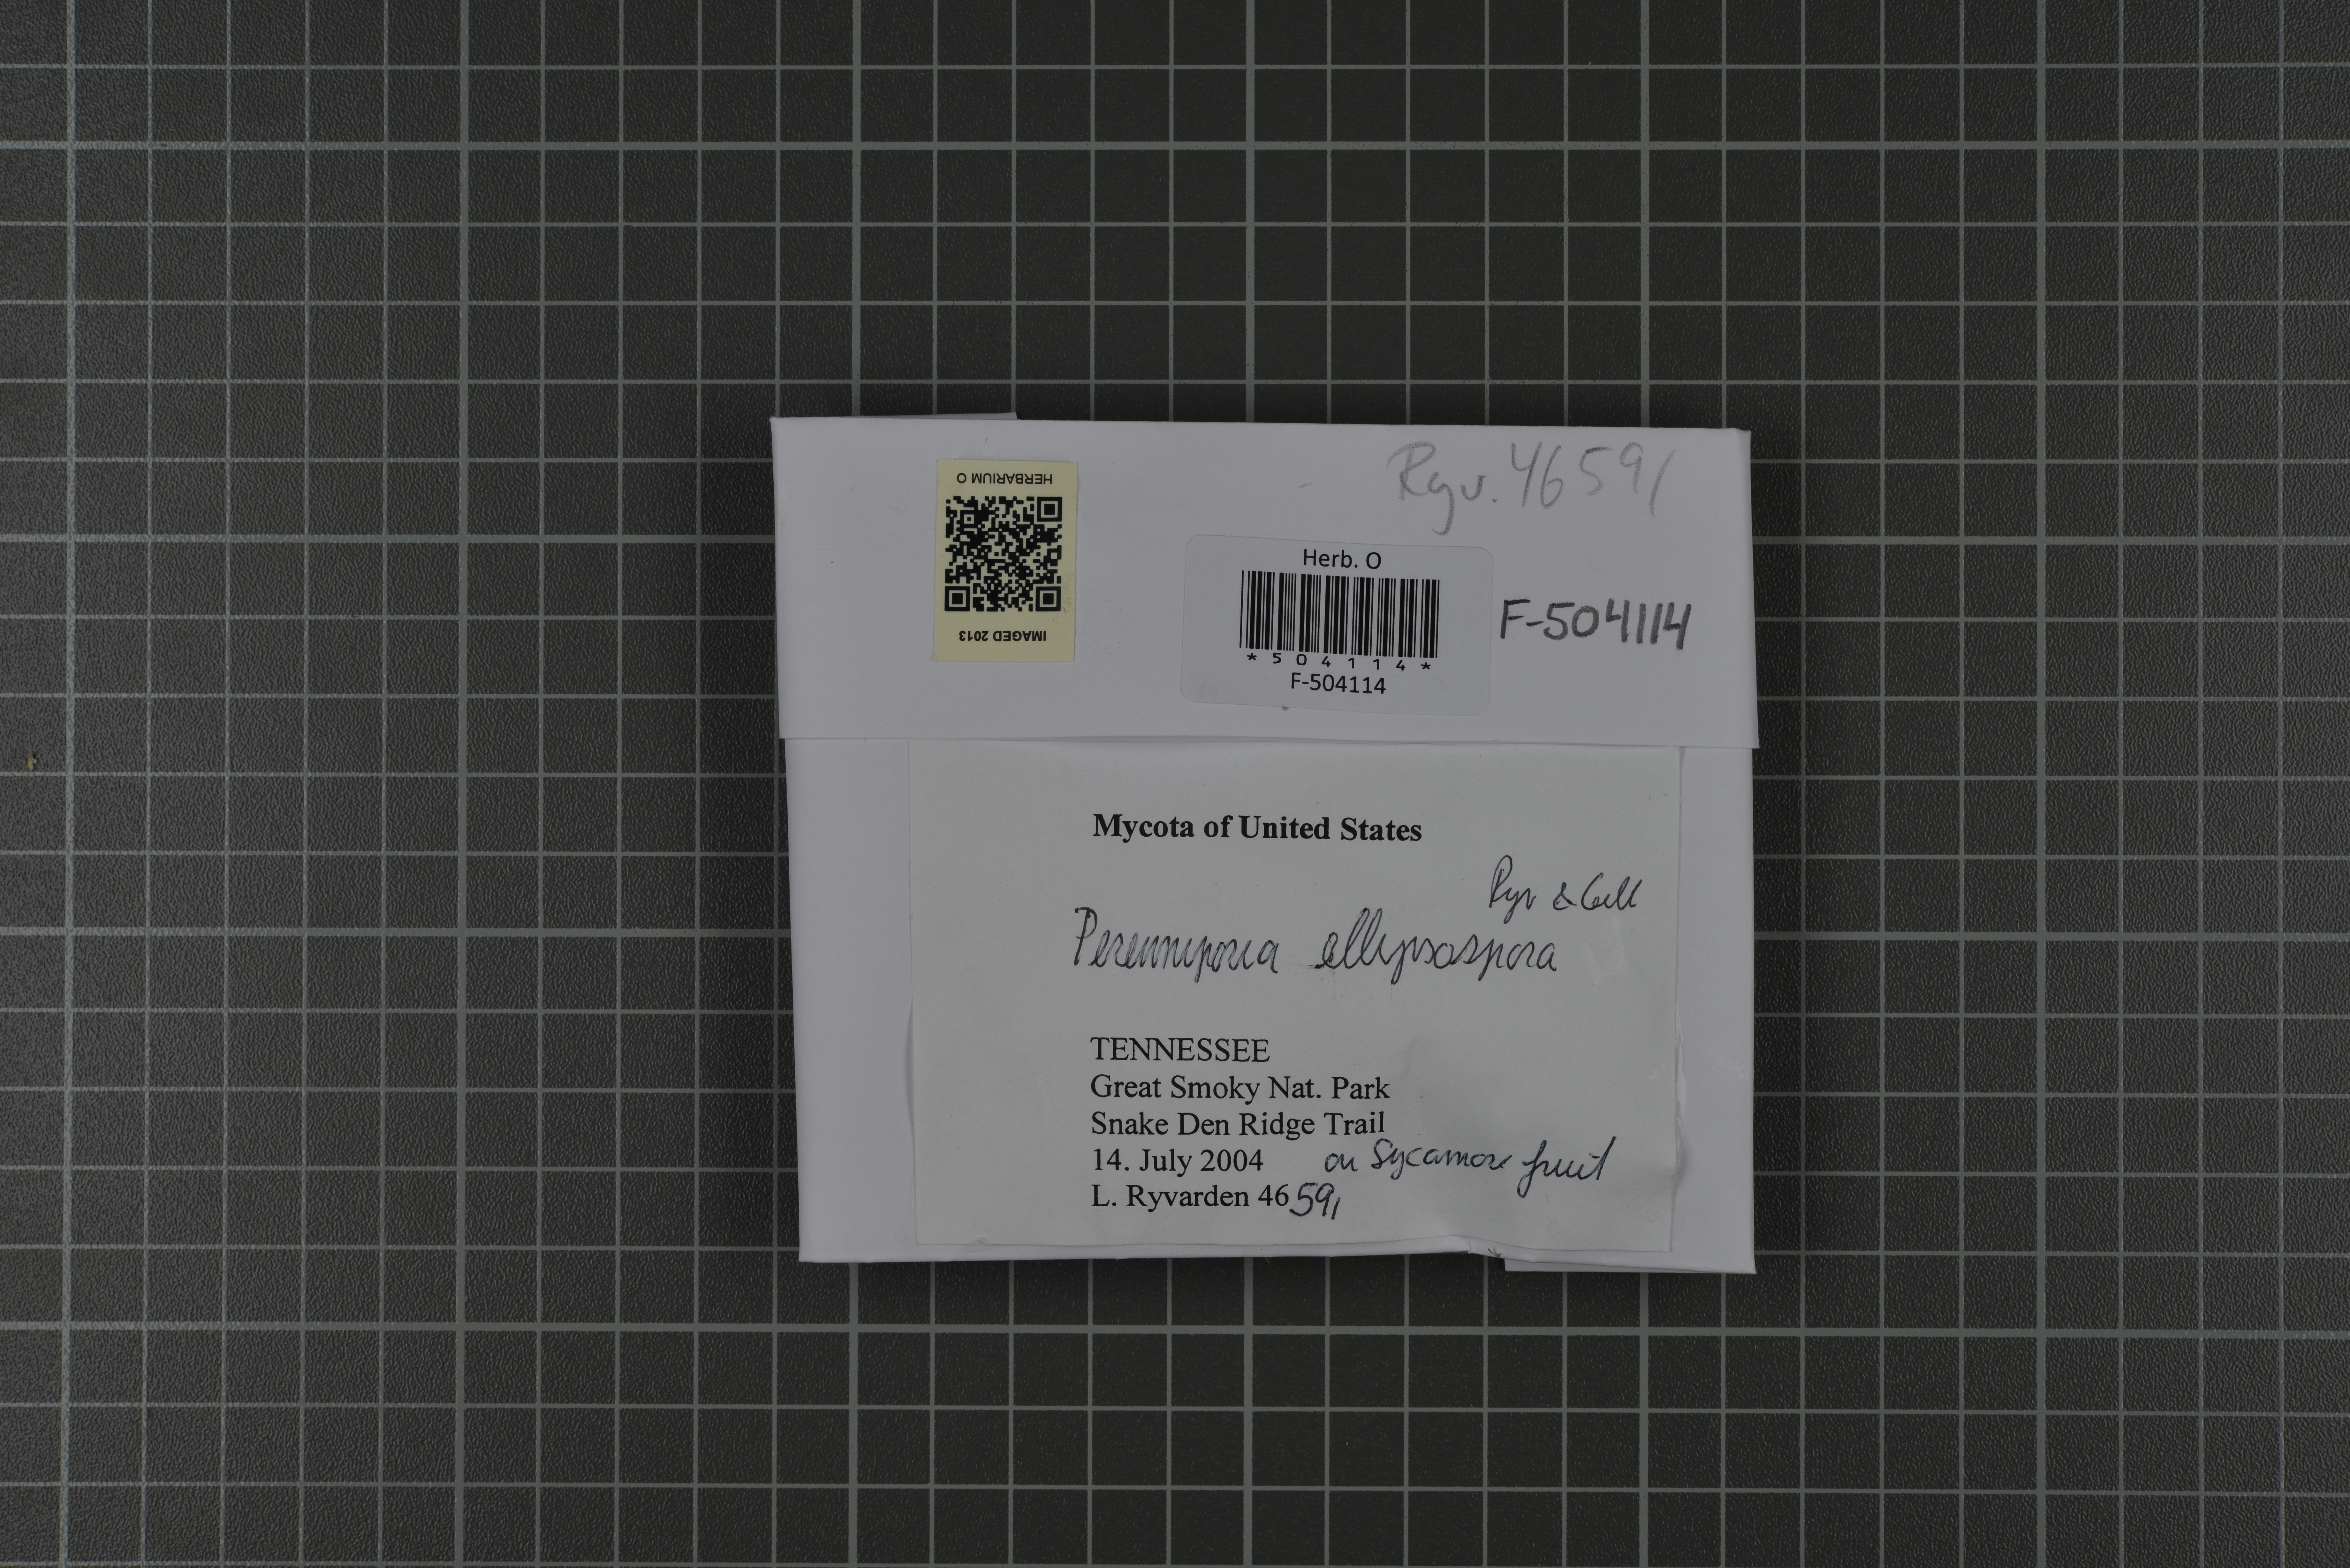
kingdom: Fungi
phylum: Basidiomycota
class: Agaricomycetes
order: Polyporales
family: Polyporaceae
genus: Perenniporia
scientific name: Perenniporia ellipsospora
